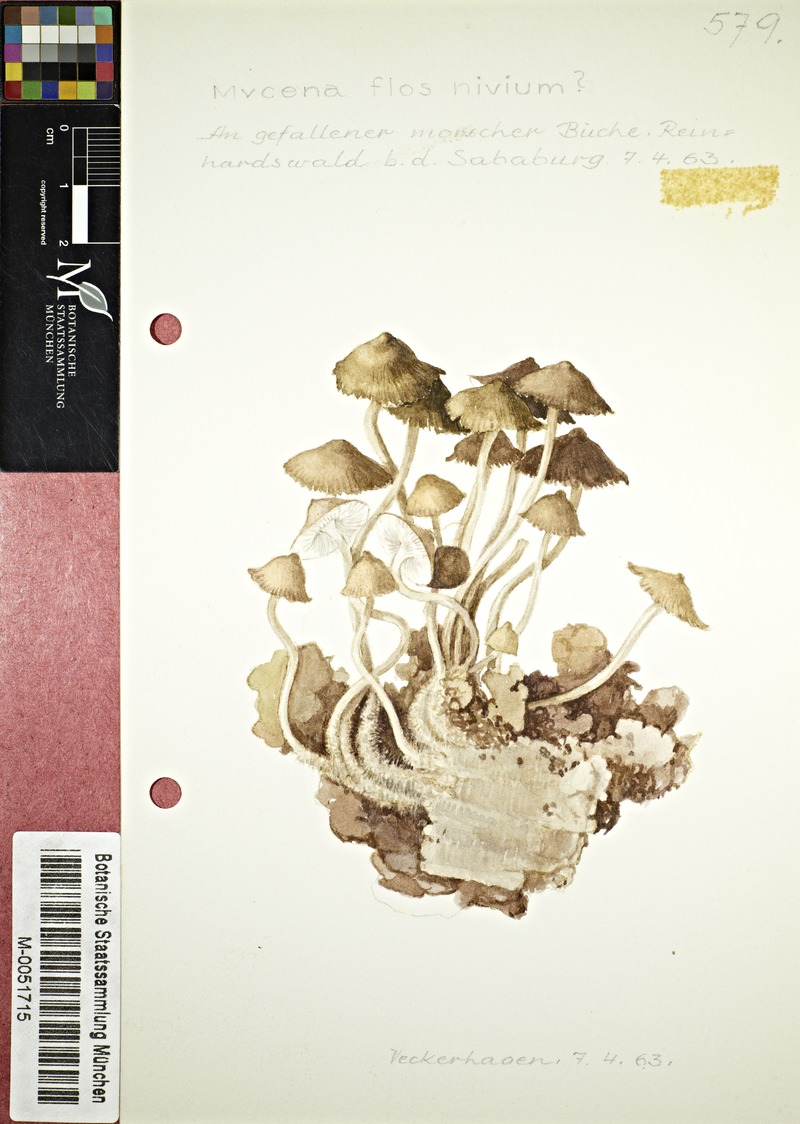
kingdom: Fungi
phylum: Basidiomycota
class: Agaricomycetes
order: Agaricales
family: Mycenaceae
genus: Mycena
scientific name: Mycena flos-nivium
